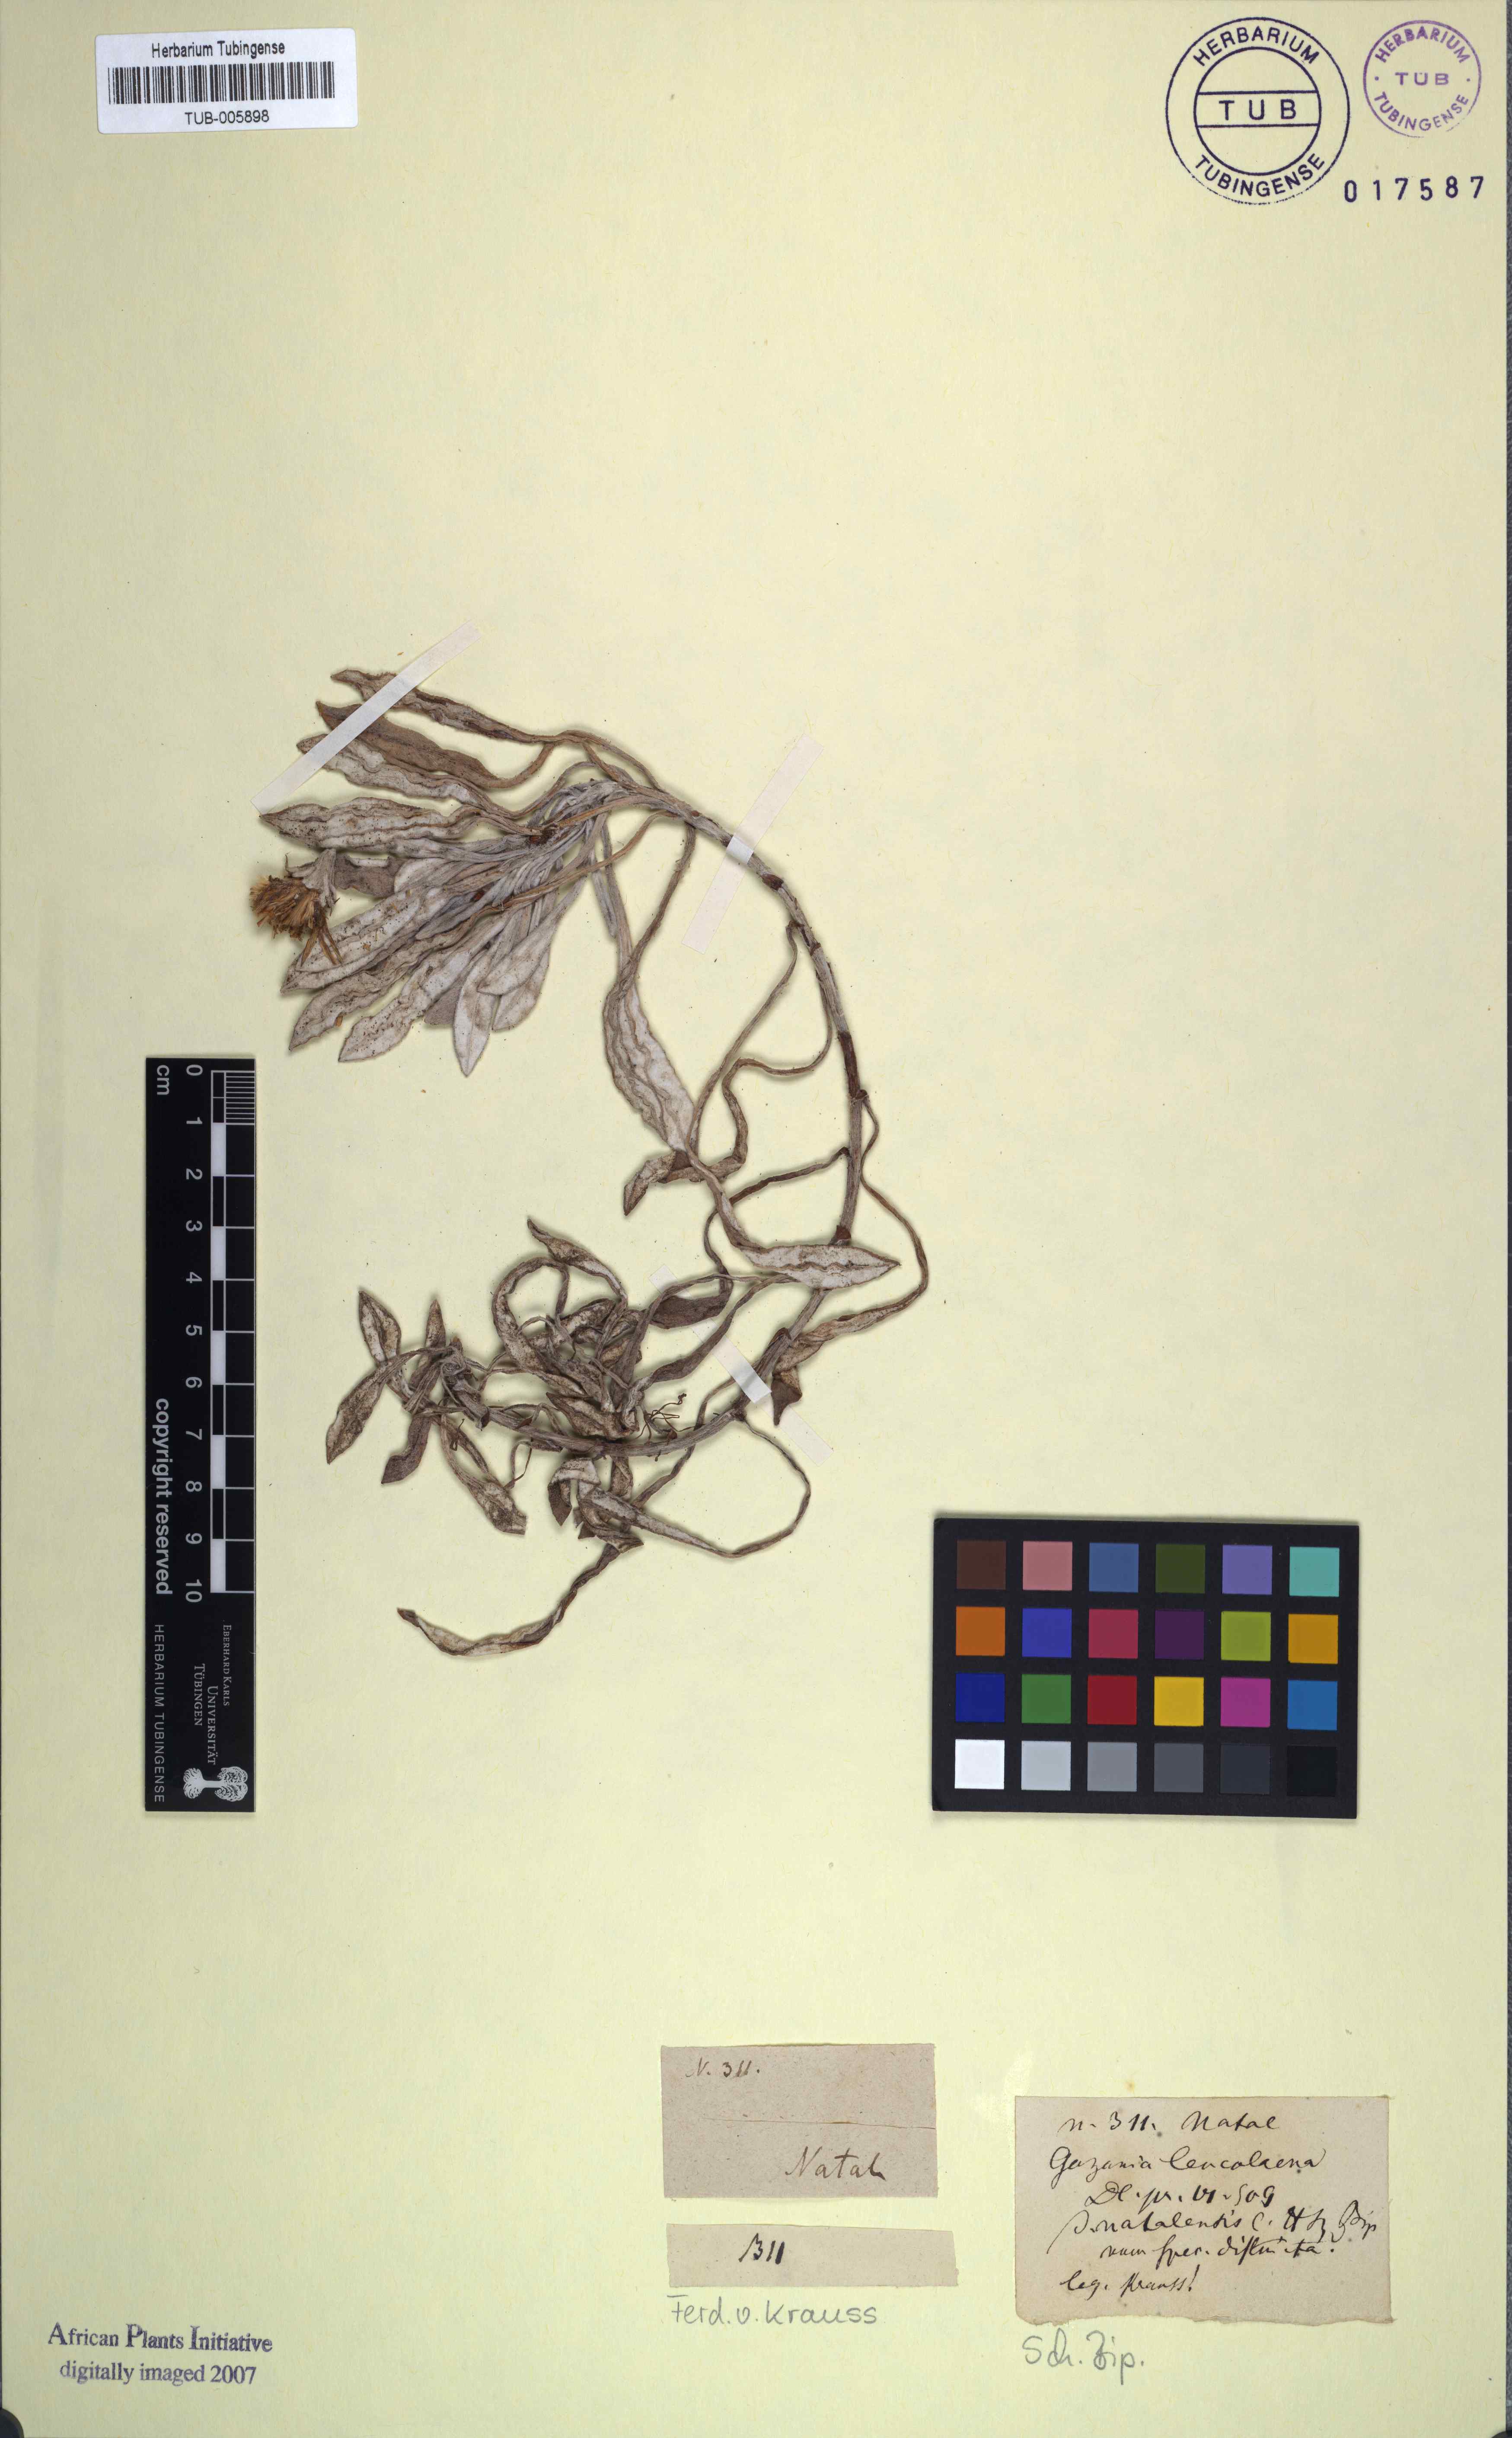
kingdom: Plantae
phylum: Tracheophyta
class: Magnoliopsida
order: Asterales
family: Asteraceae
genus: Gazania
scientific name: Gazania rigens
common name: Treasureflower
